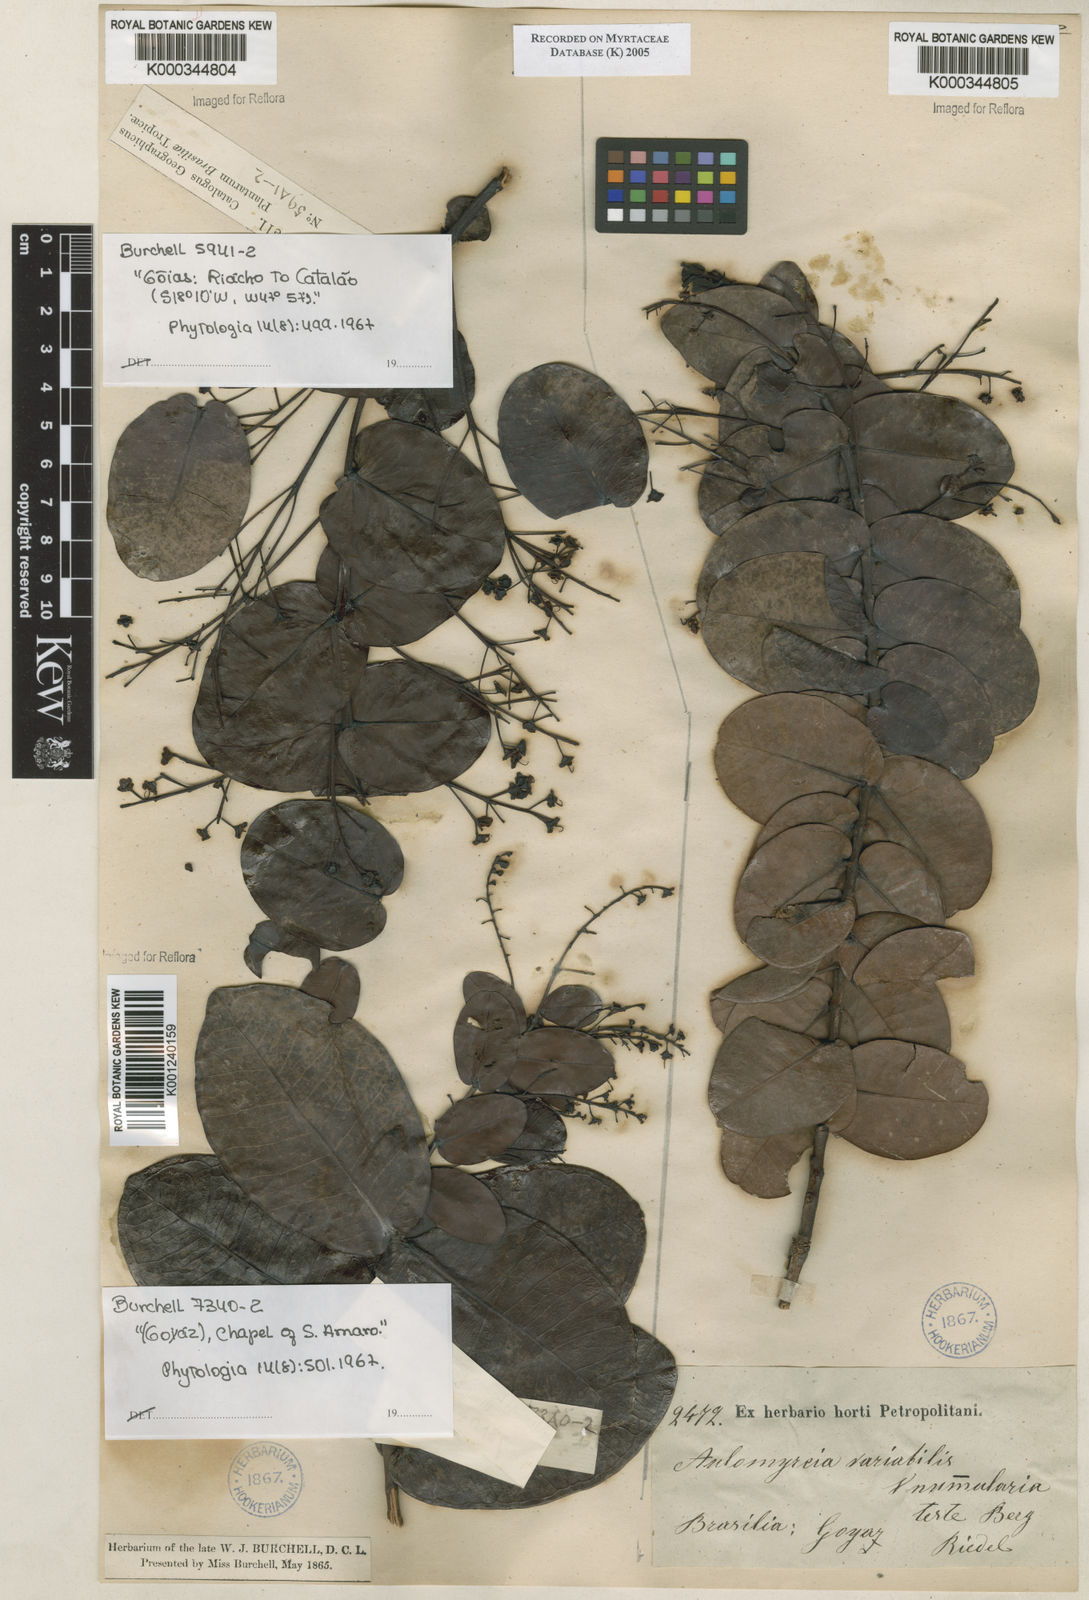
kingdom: Plantae
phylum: Tracheophyta
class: Magnoliopsida
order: Myrtales
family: Myrtaceae
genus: Myrcia
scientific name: Myrcia variabilis
